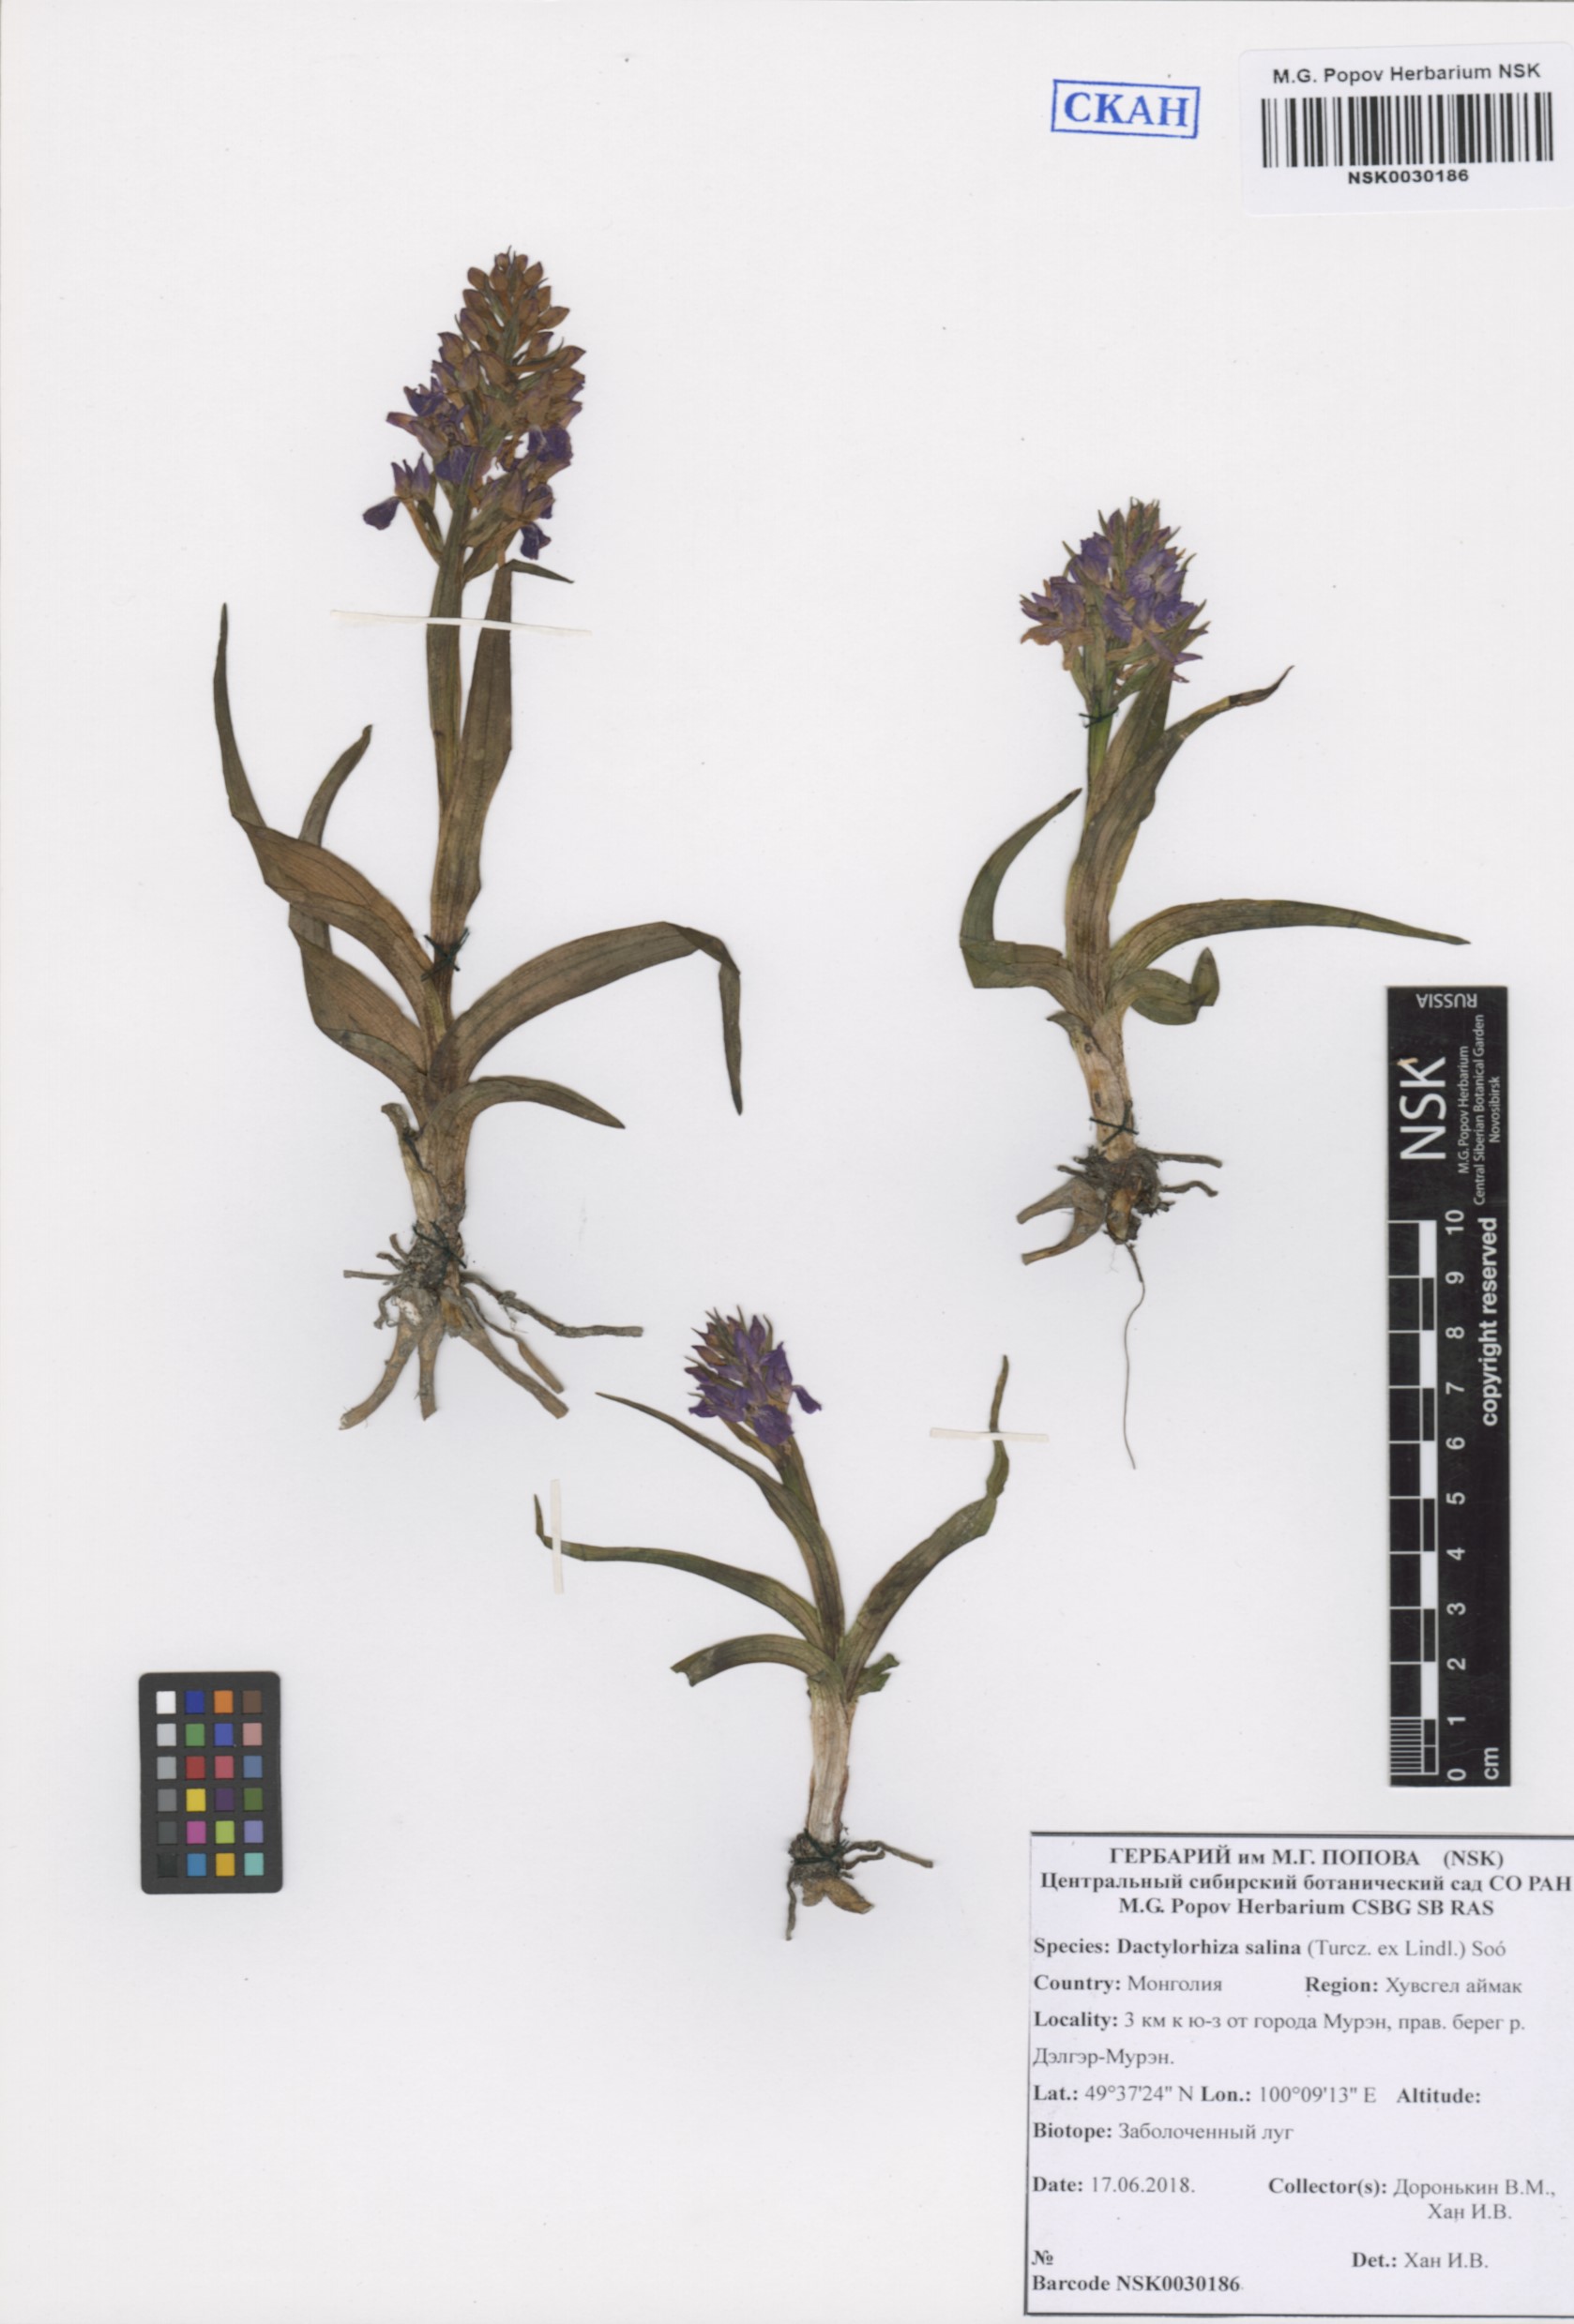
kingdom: Plantae
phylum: Tracheophyta
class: Liliopsida
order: Asparagales
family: Orchidaceae
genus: Dactylorhiza
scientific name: Dactylorhiza salina
